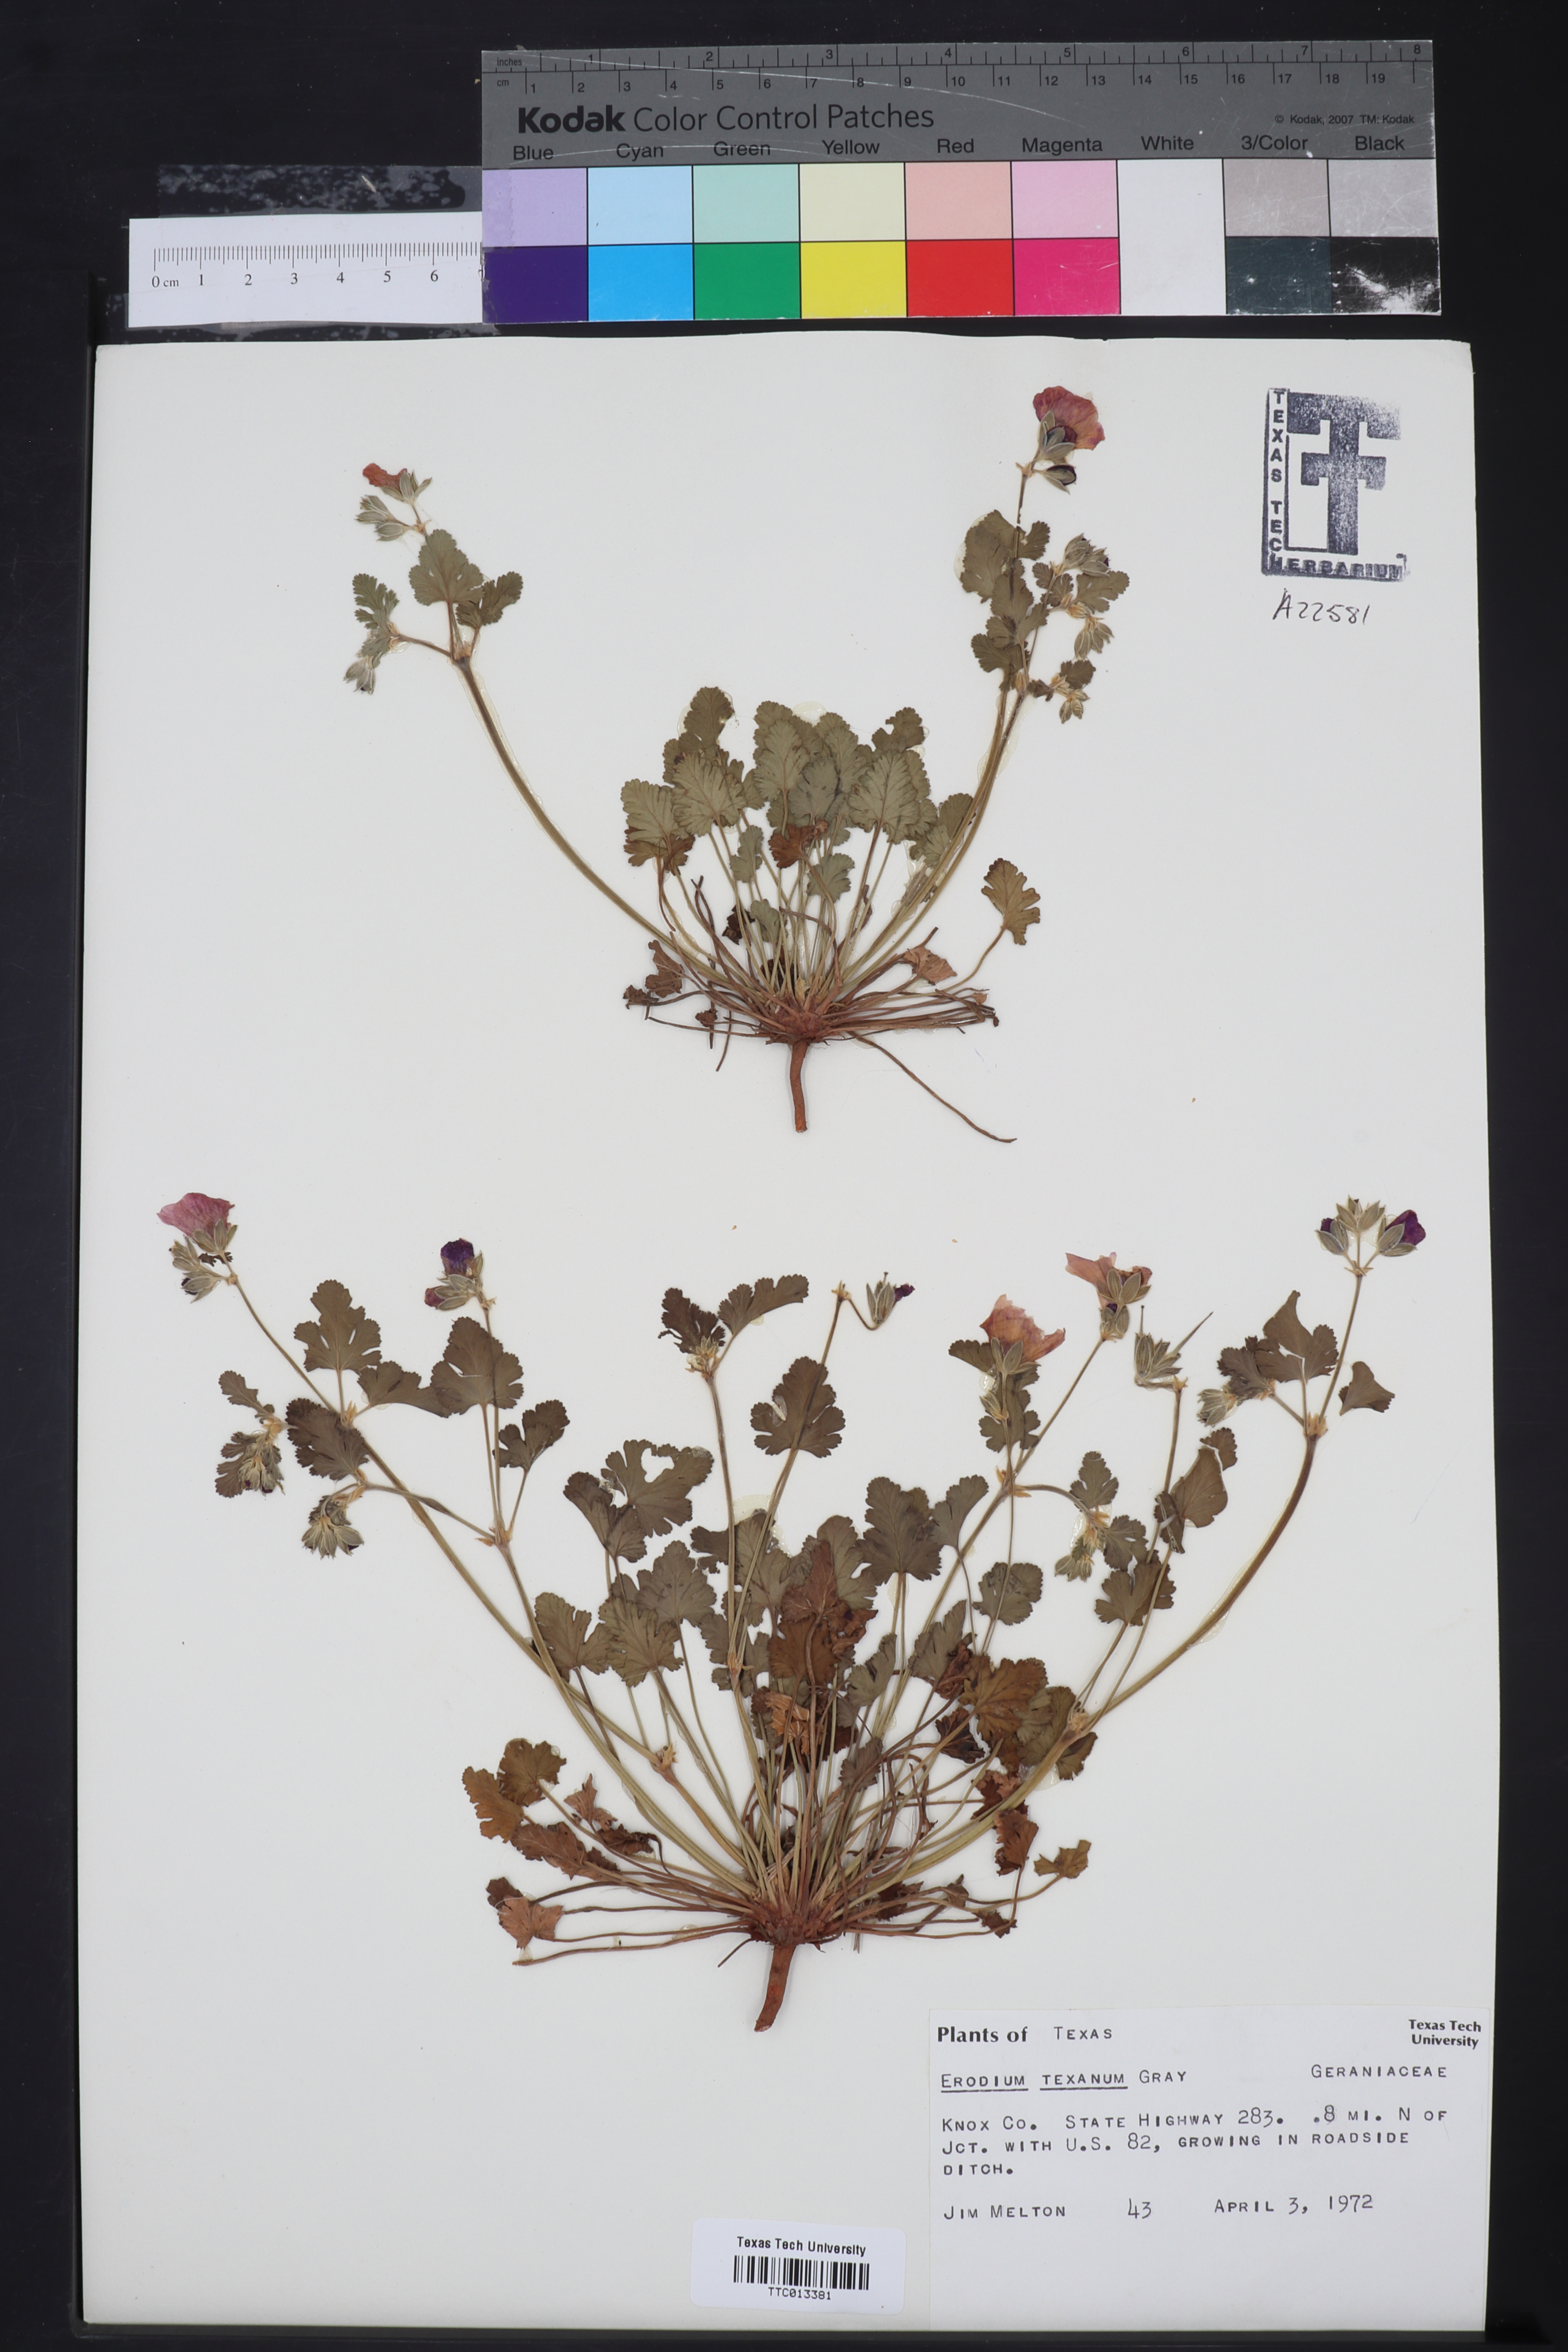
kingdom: Plantae
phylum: Tracheophyta
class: Magnoliopsida
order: Geraniales
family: Geraniaceae
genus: Erodium
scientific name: Erodium texanum
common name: Texas stork's-bill
